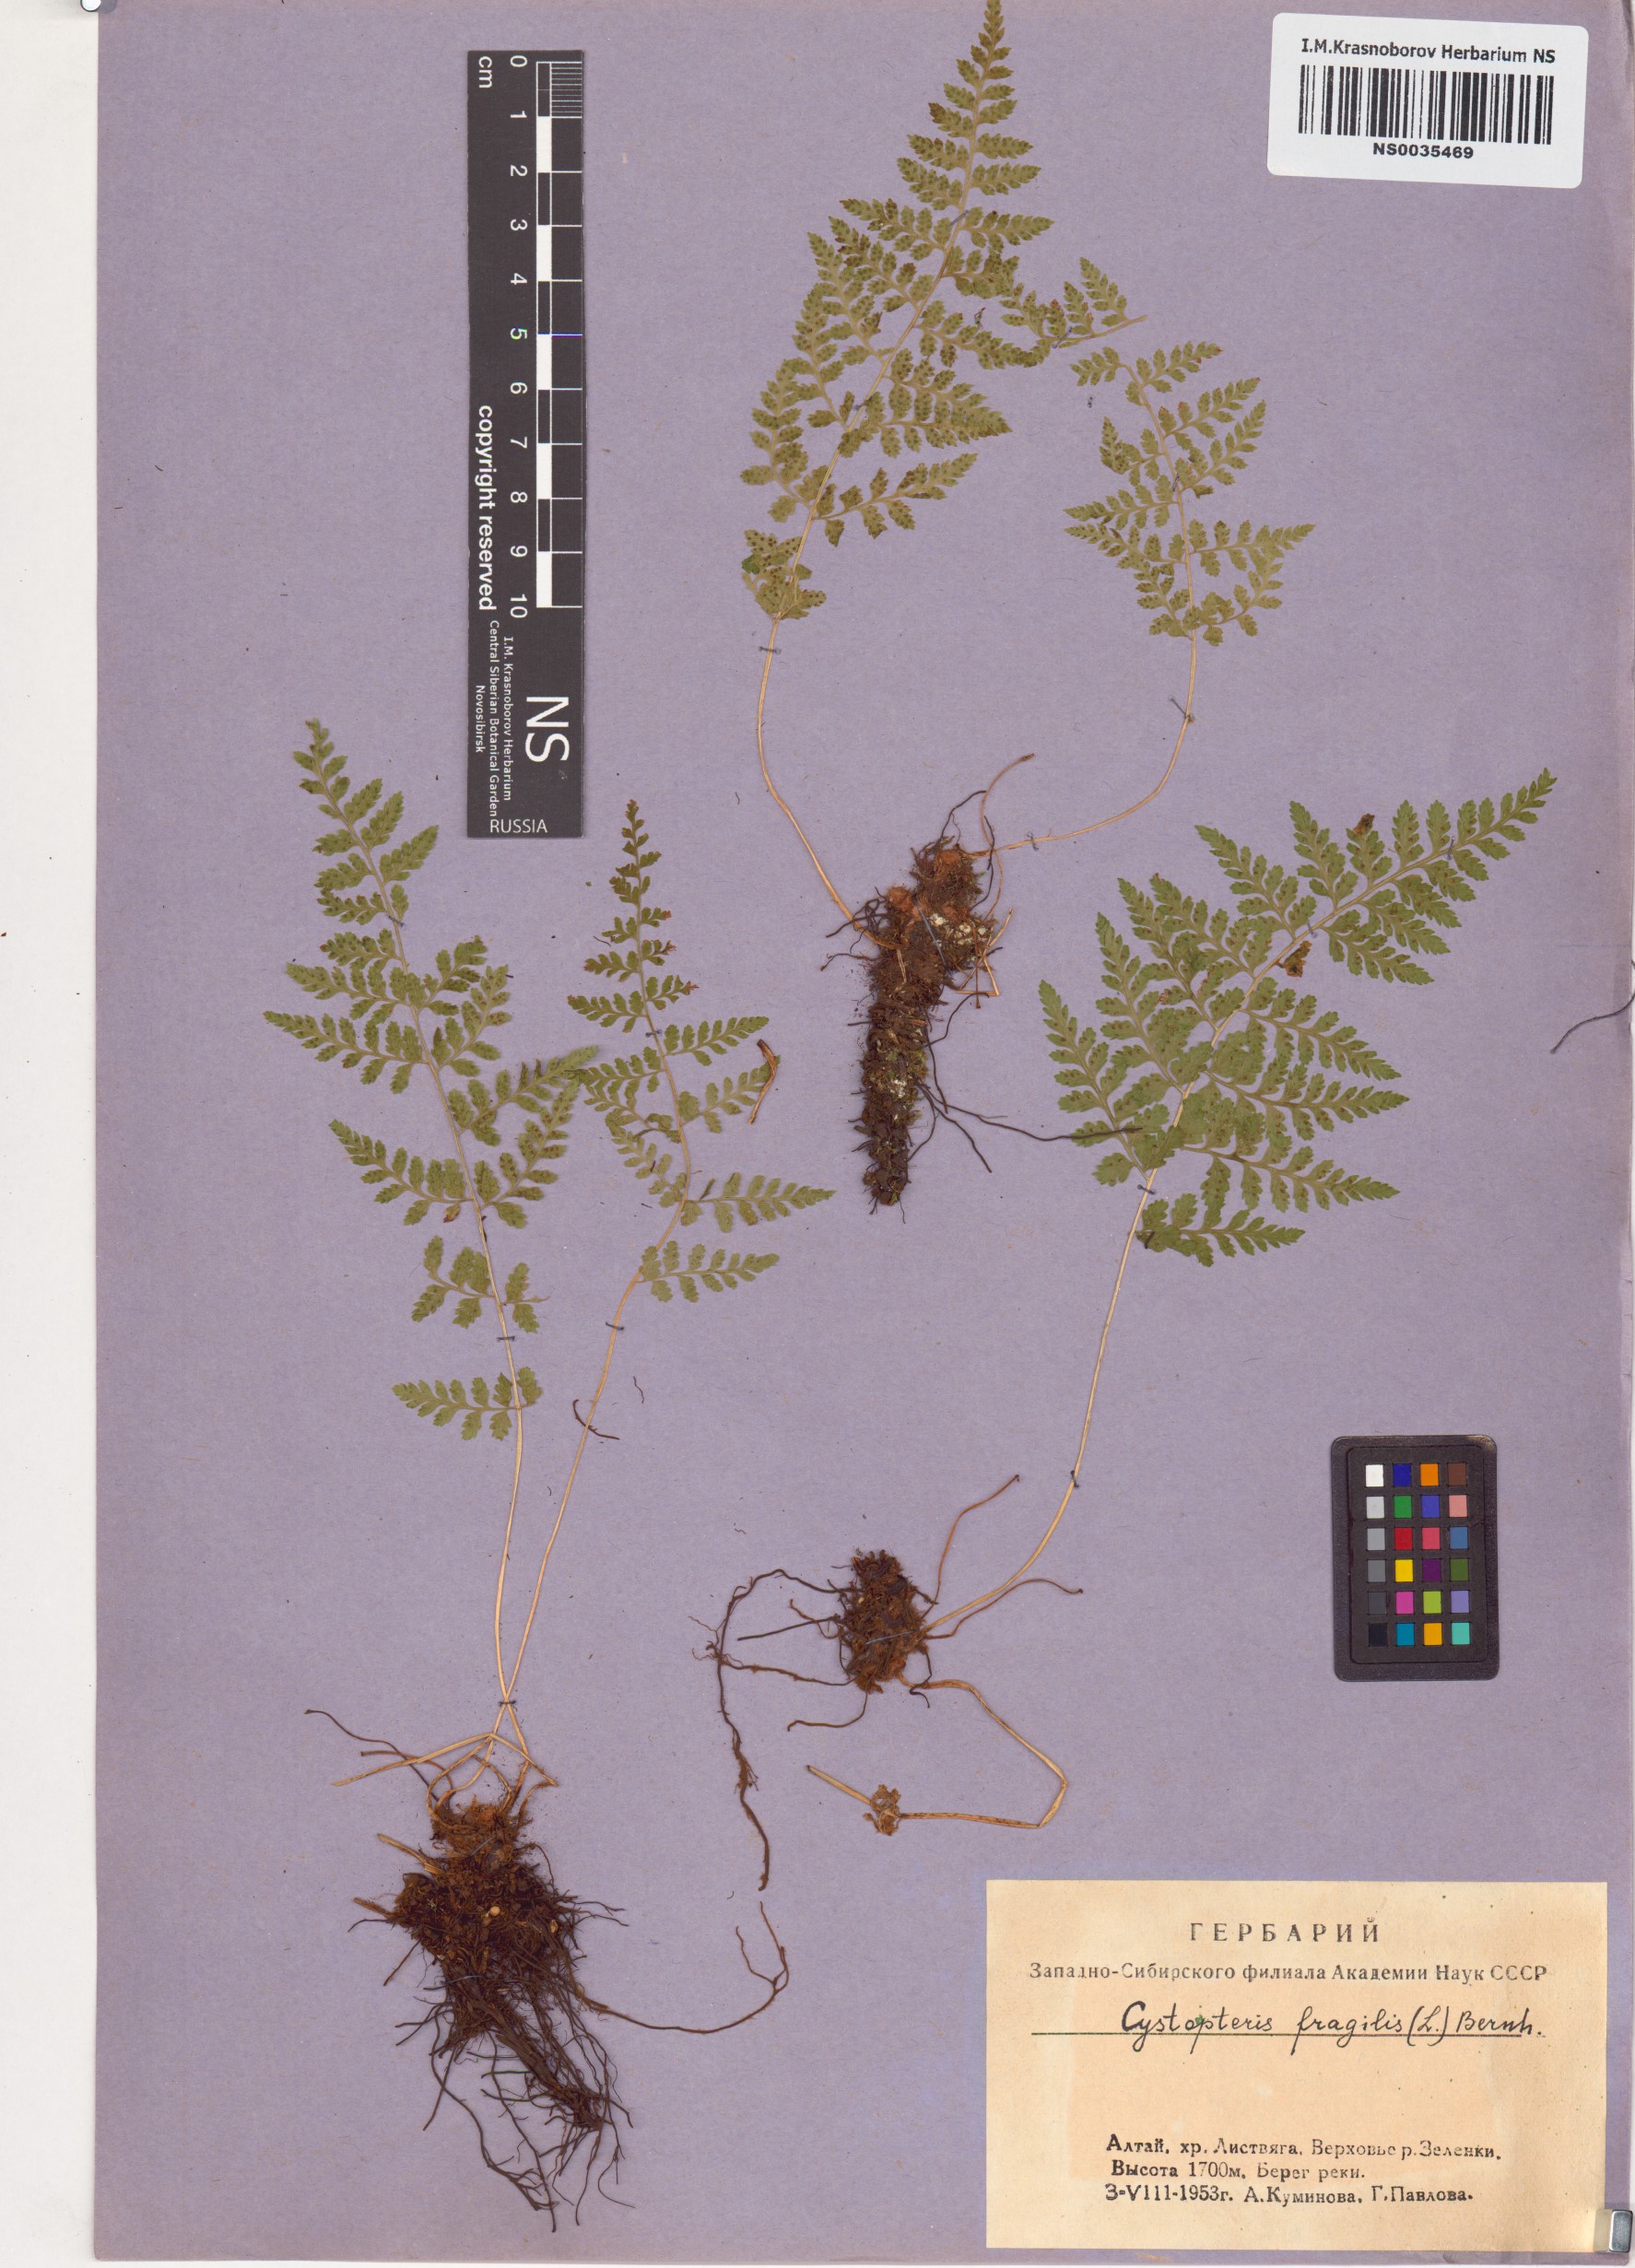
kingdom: Plantae
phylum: Tracheophyta
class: Polypodiopsida
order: Polypodiales
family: Cystopteridaceae
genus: Cystopteris
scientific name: Cystopteris fragilis
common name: Brittle bladder fern
